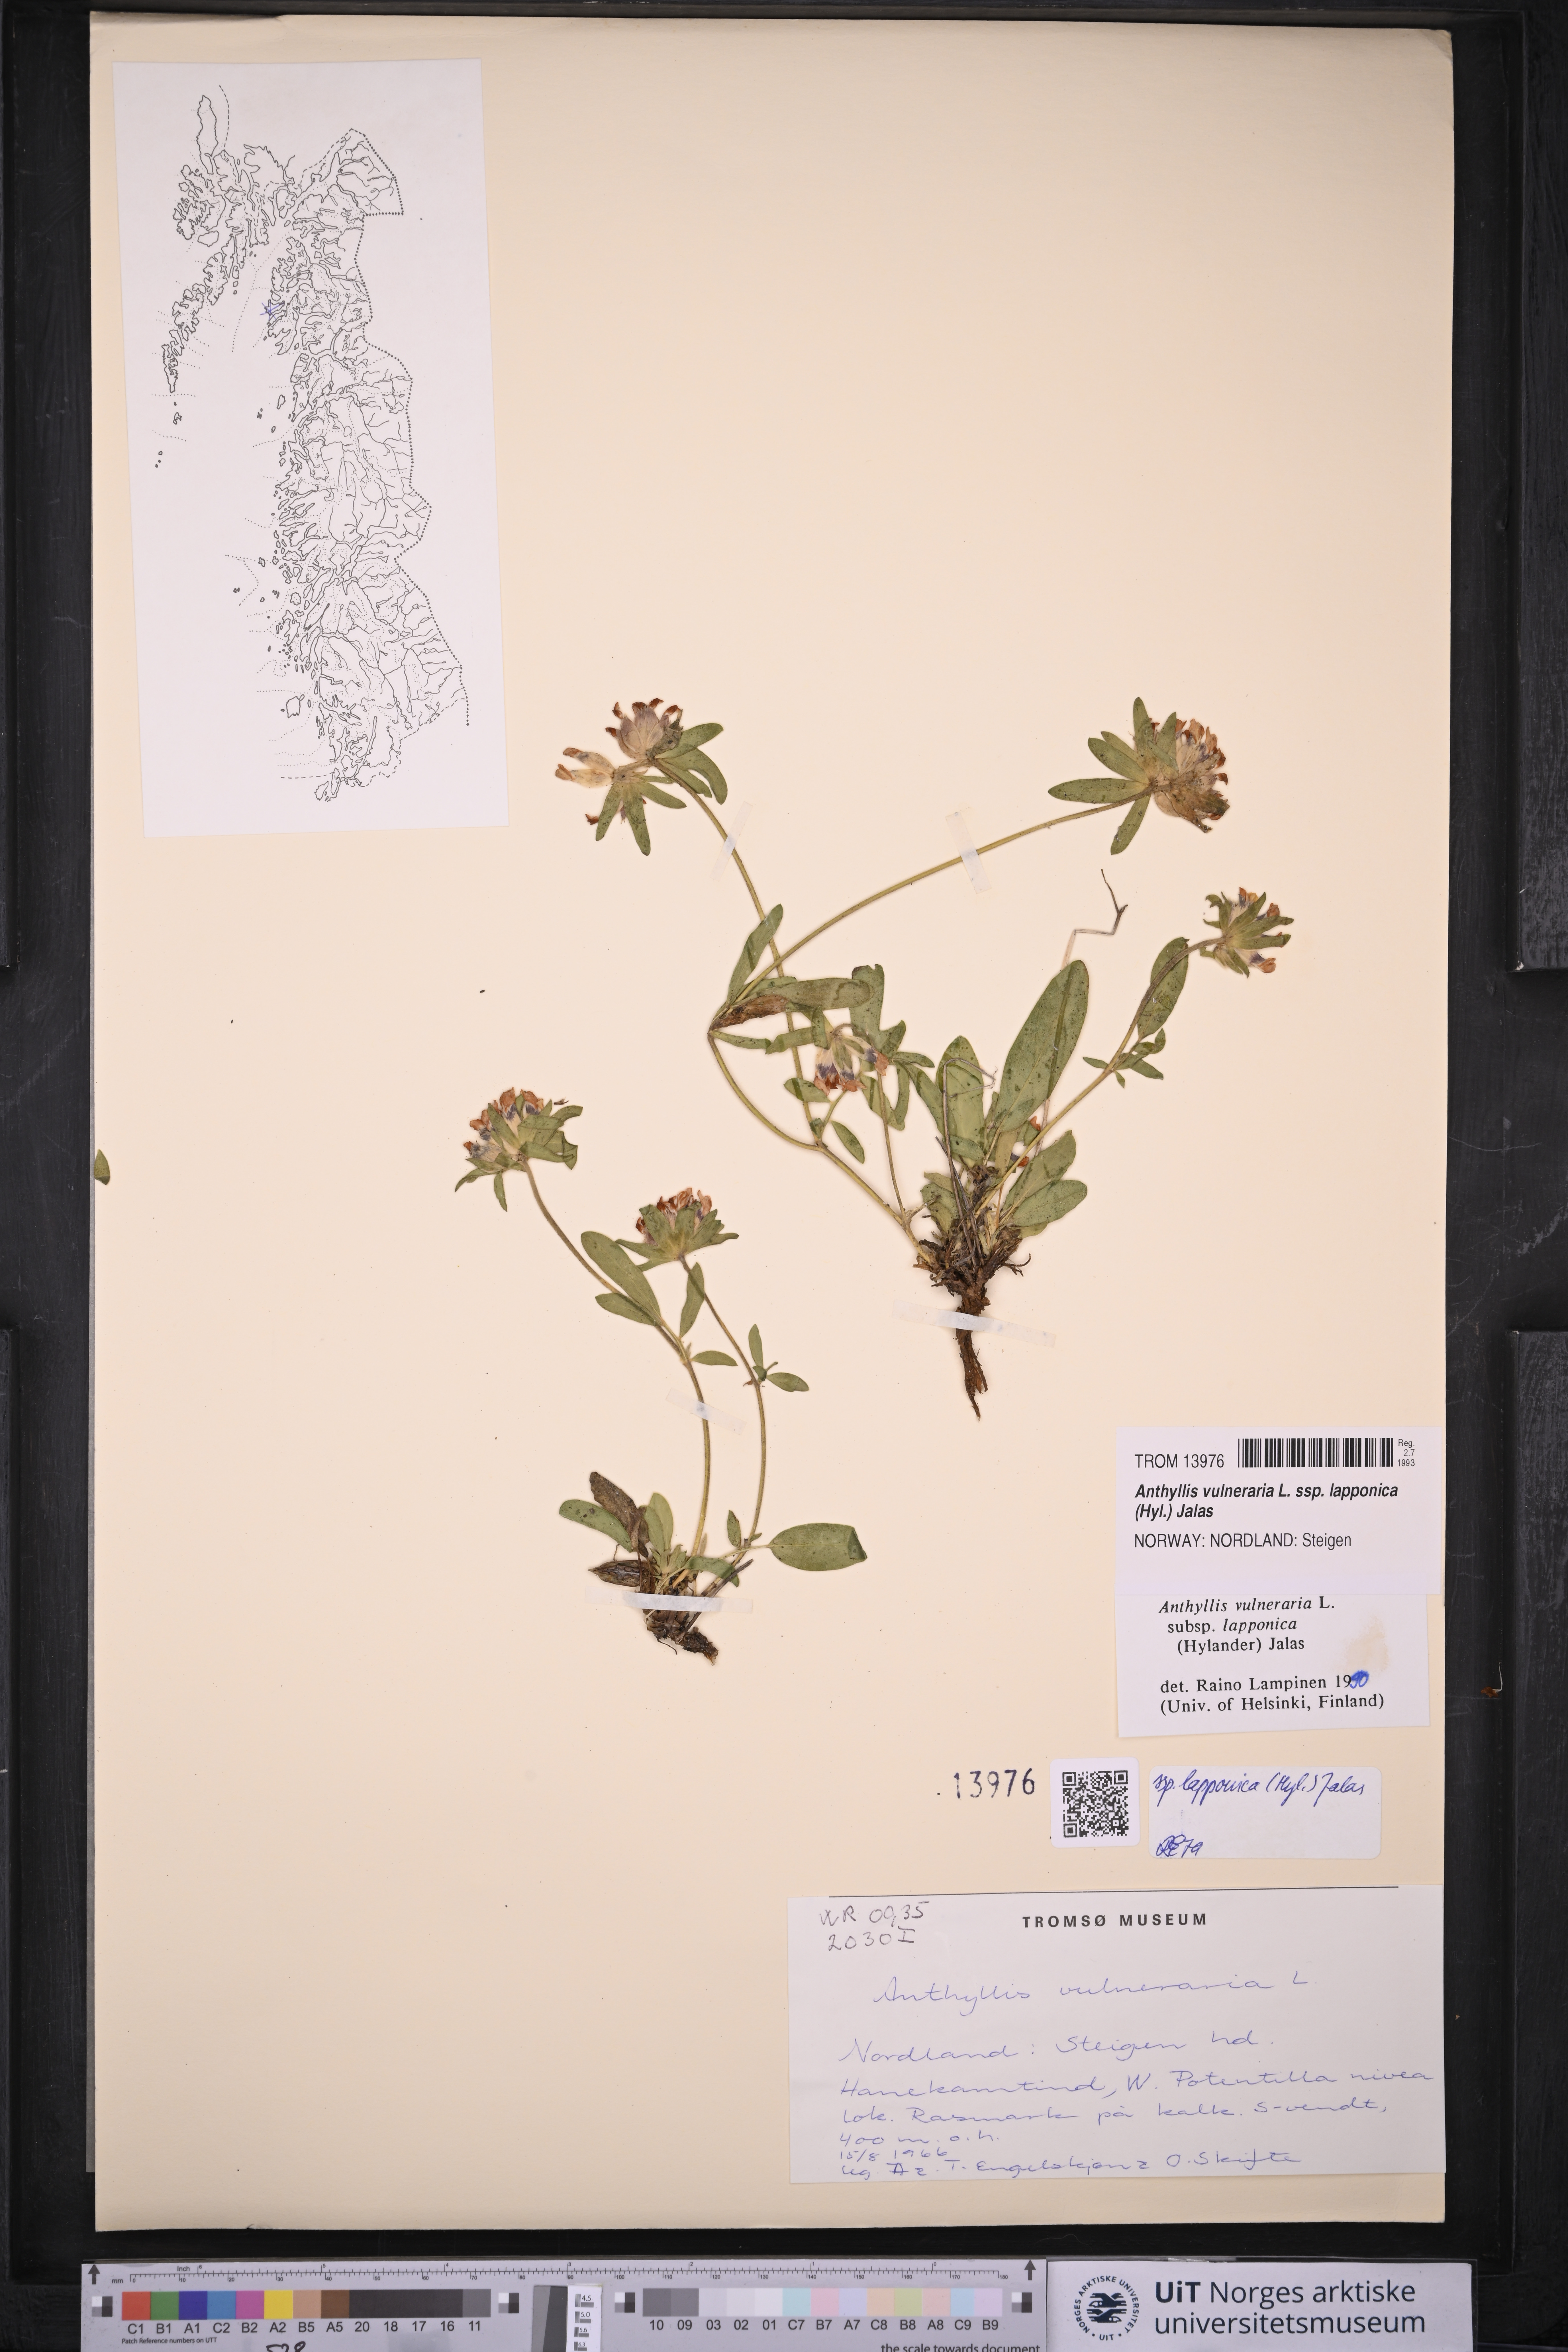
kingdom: Plantae
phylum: Tracheophyta
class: Magnoliopsida
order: Fabales
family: Fabaceae
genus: Anthyllis
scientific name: Anthyllis vulneraria
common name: Kidney vetch
